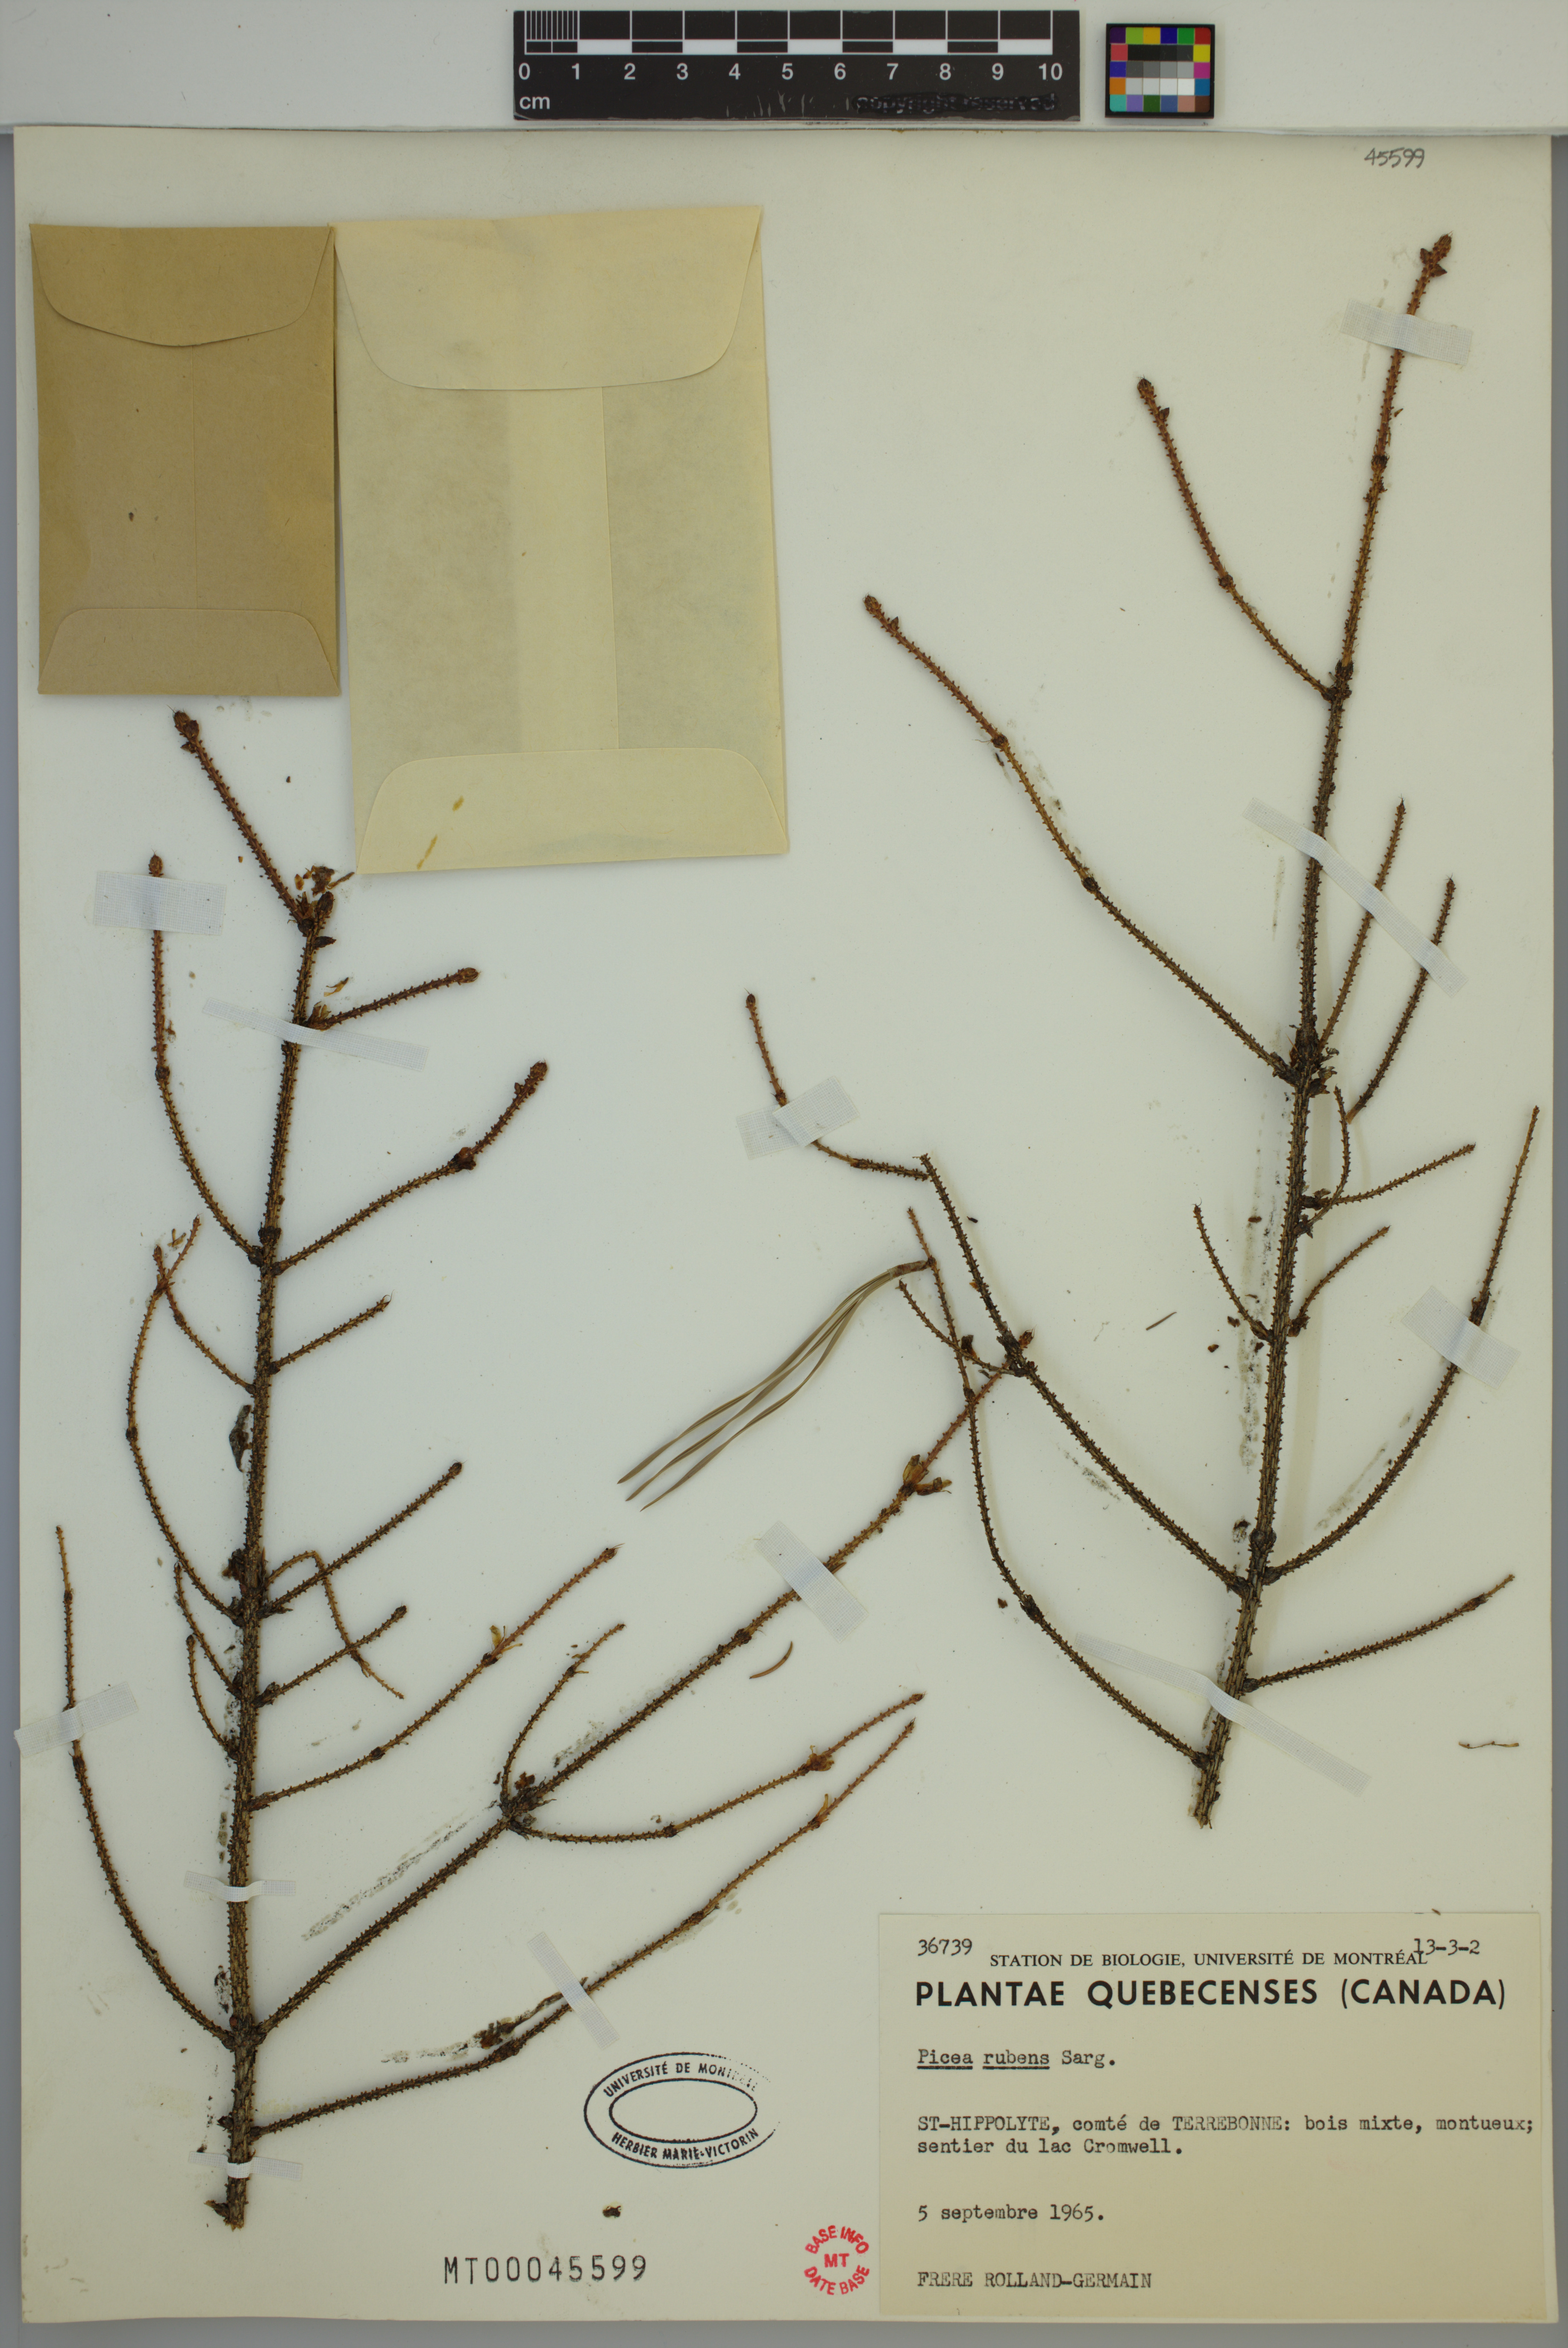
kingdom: Plantae
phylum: Tracheophyta
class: Pinopsida
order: Pinales
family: Pinaceae
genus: Picea
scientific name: Picea rubens
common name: Red spruce
